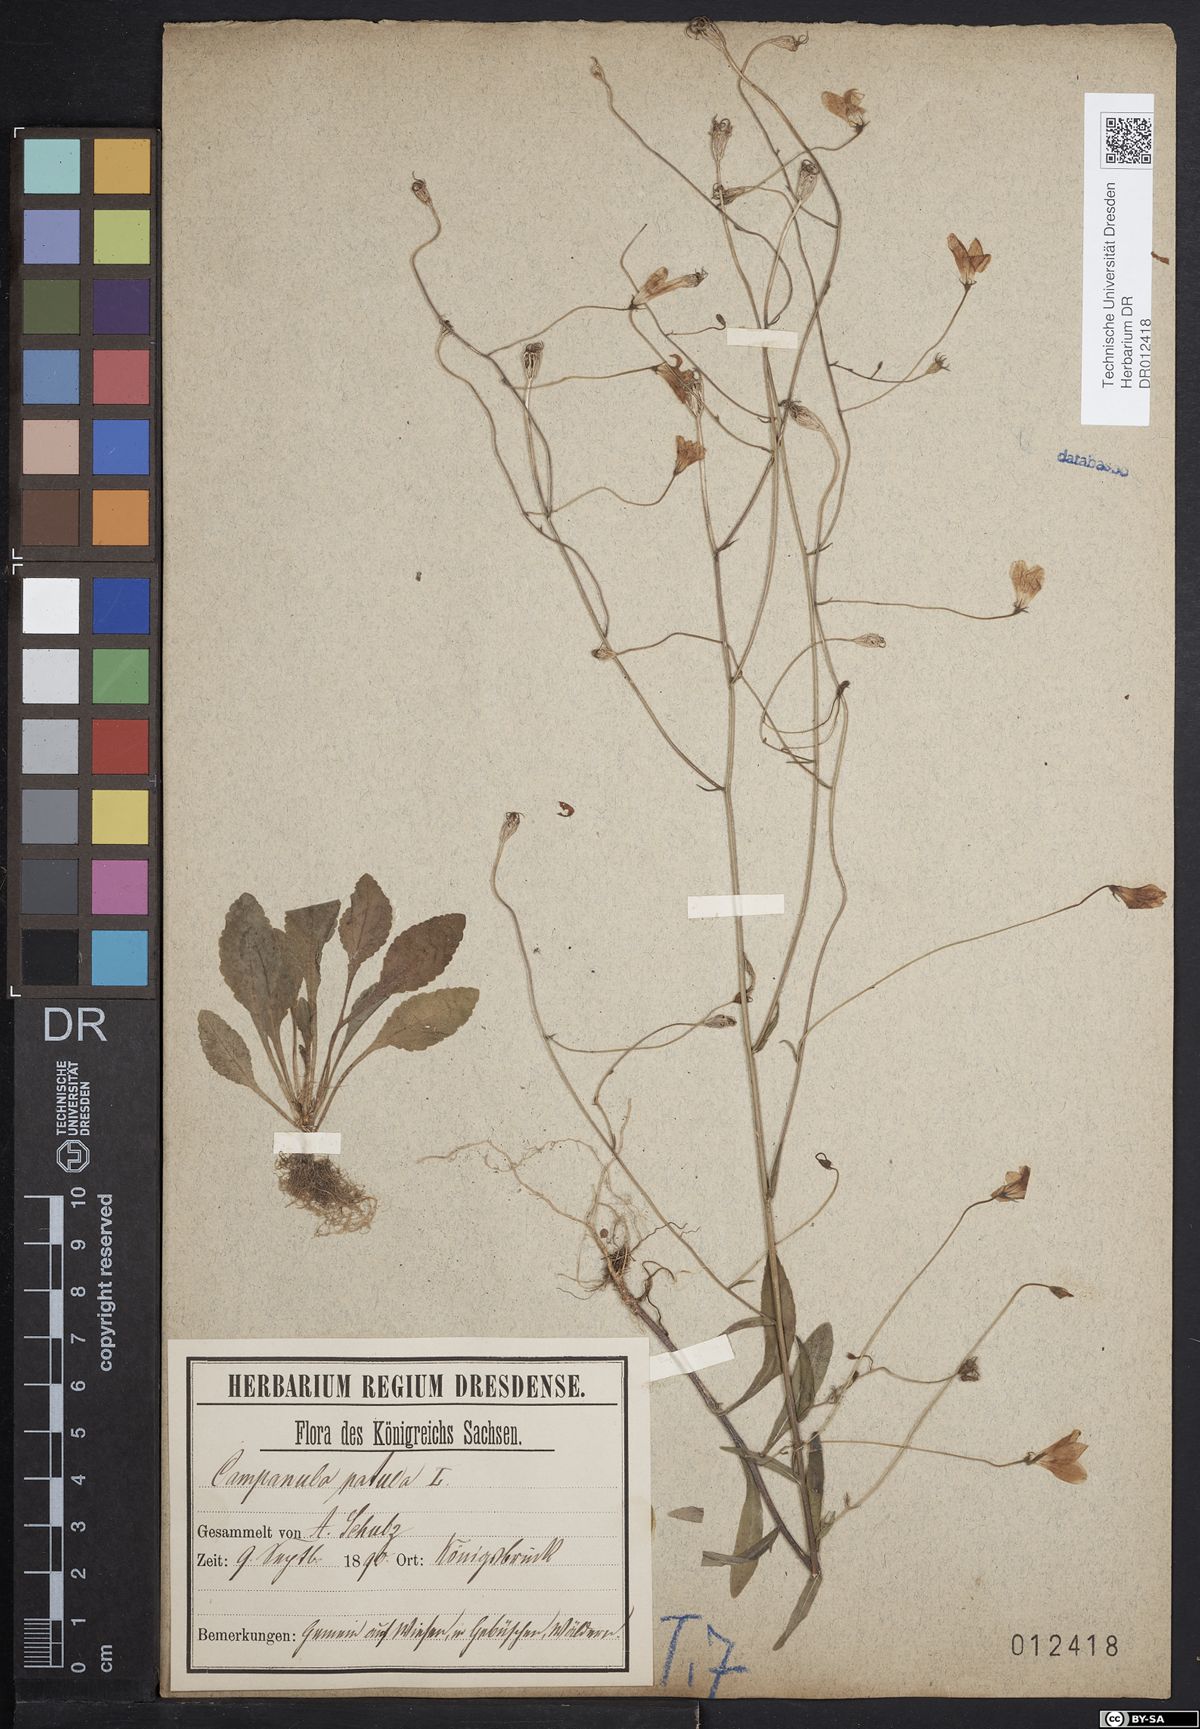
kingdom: Plantae
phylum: Tracheophyta
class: Magnoliopsida
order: Asterales
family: Campanulaceae
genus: Campanula
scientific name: Campanula patula
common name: Spreading bellflower
